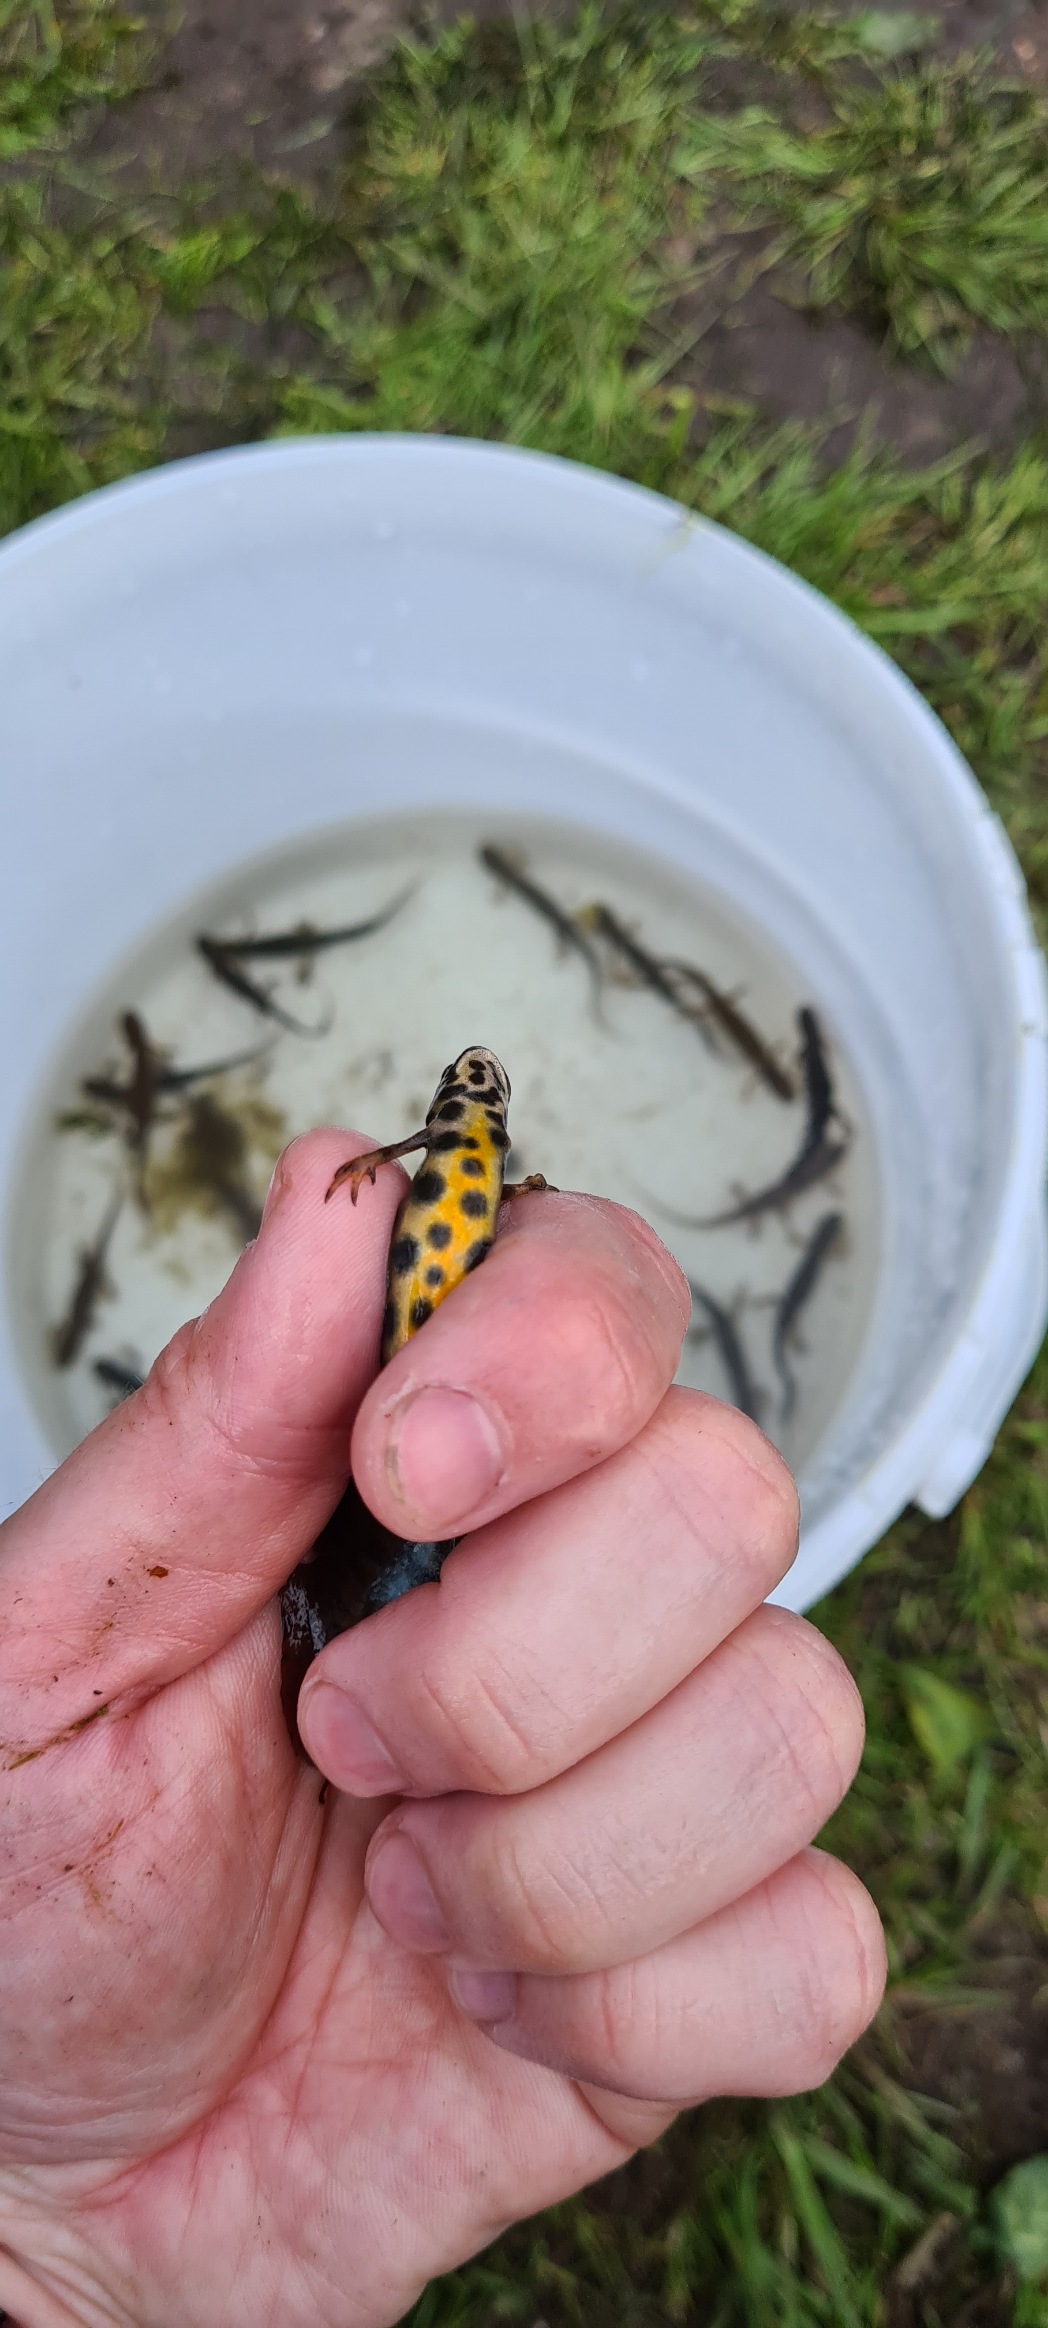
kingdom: Animalia
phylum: Chordata
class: Amphibia
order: Caudata
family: Salamandridae
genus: Lissotriton
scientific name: Lissotriton vulgaris
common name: Lille vandsalamander
